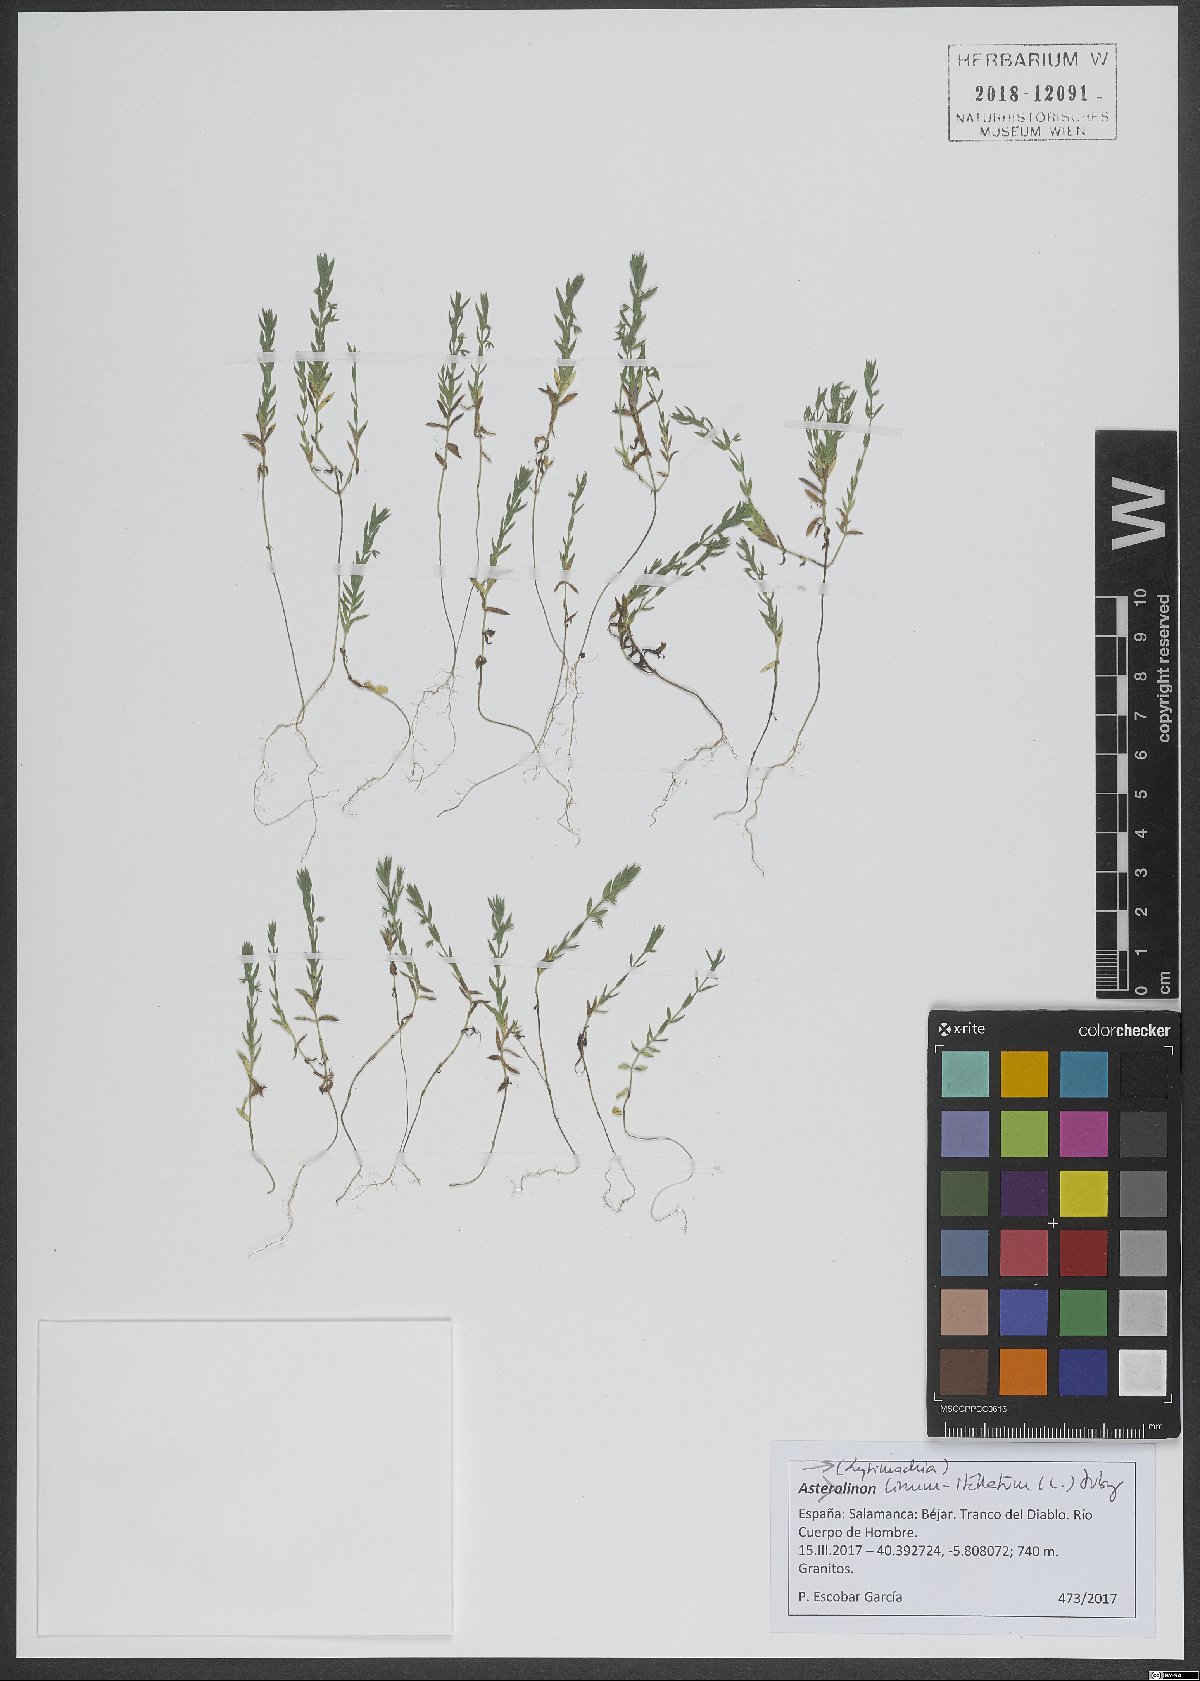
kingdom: Plantae
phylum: Tracheophyta
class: Magnoliopsida
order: Ericales
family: Primulaceae
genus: Lysimachia
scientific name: Lysimachia linum-stellatum
